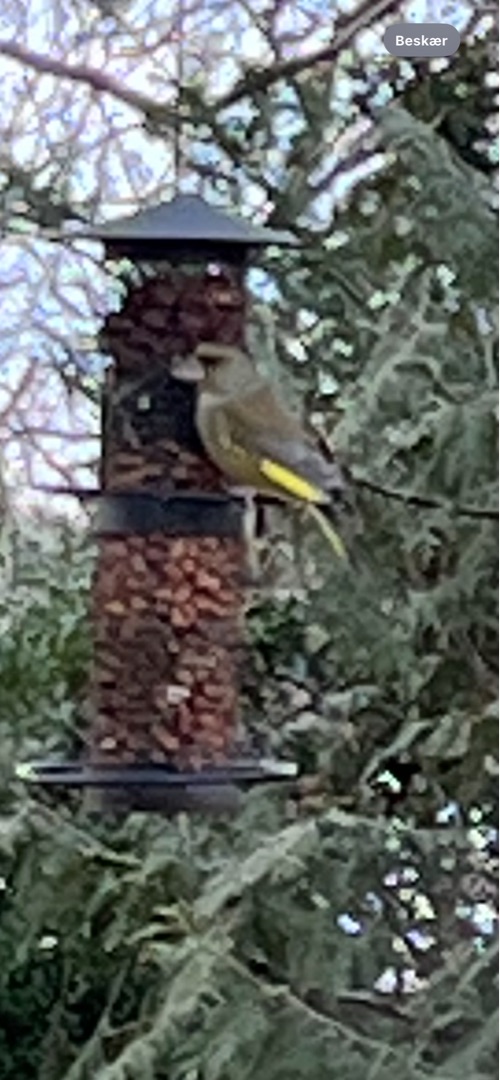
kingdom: Plantae
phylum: Tracheophyta
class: Liliopsida
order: Poales
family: Poaceae
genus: Chloris
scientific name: Chloris chloris
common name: Grønirisk
